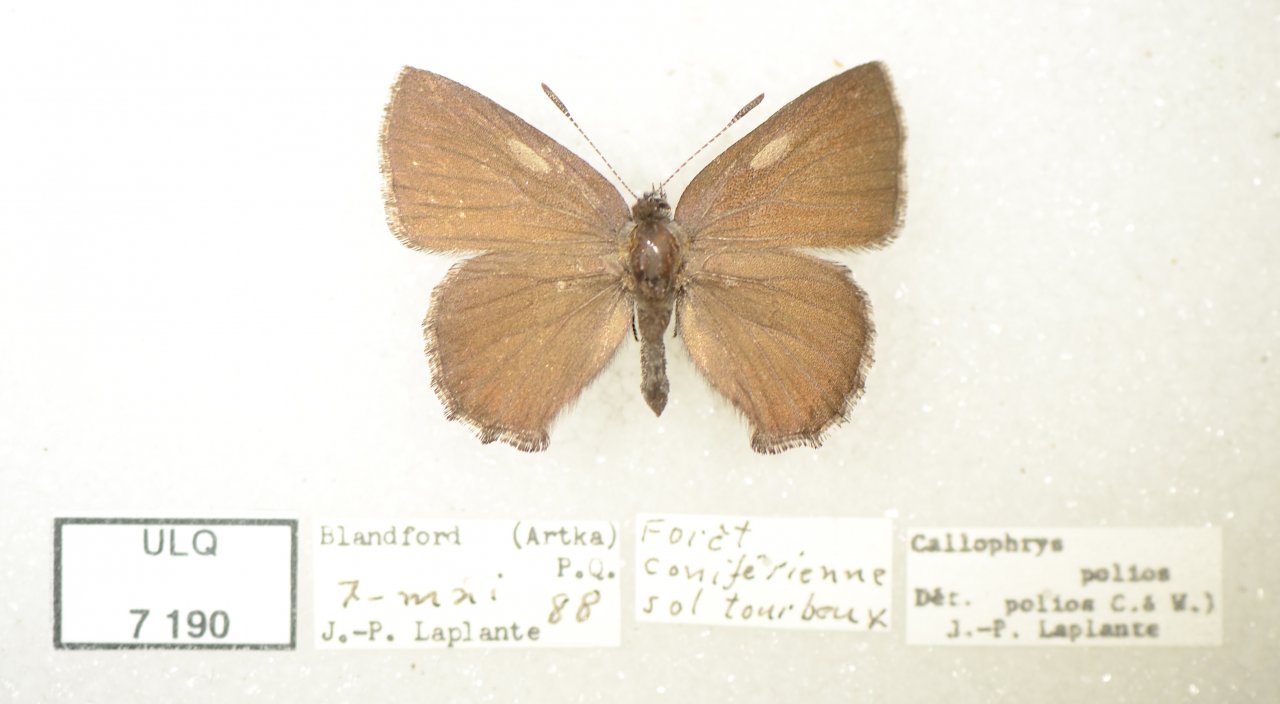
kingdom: Animalia
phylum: Arthropoda
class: Insecta
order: Lepidoptera
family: Lycaenidae
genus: Callophrys
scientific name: Callophrys polios
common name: Hoary Elfin
